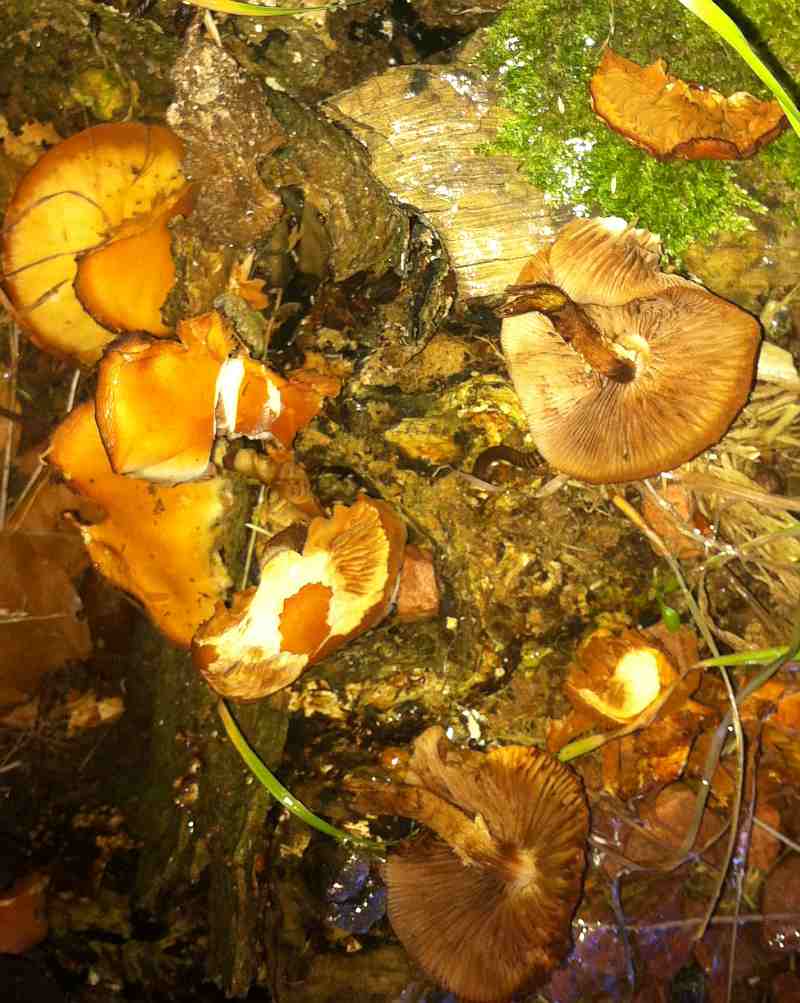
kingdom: Fungi
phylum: Basidiomycota
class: Agaricomycetes
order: Agaricales
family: Strophariaceae
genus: Kuehneromyces
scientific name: Kuehneromyces mutabilis
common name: foranderlig skælhat
